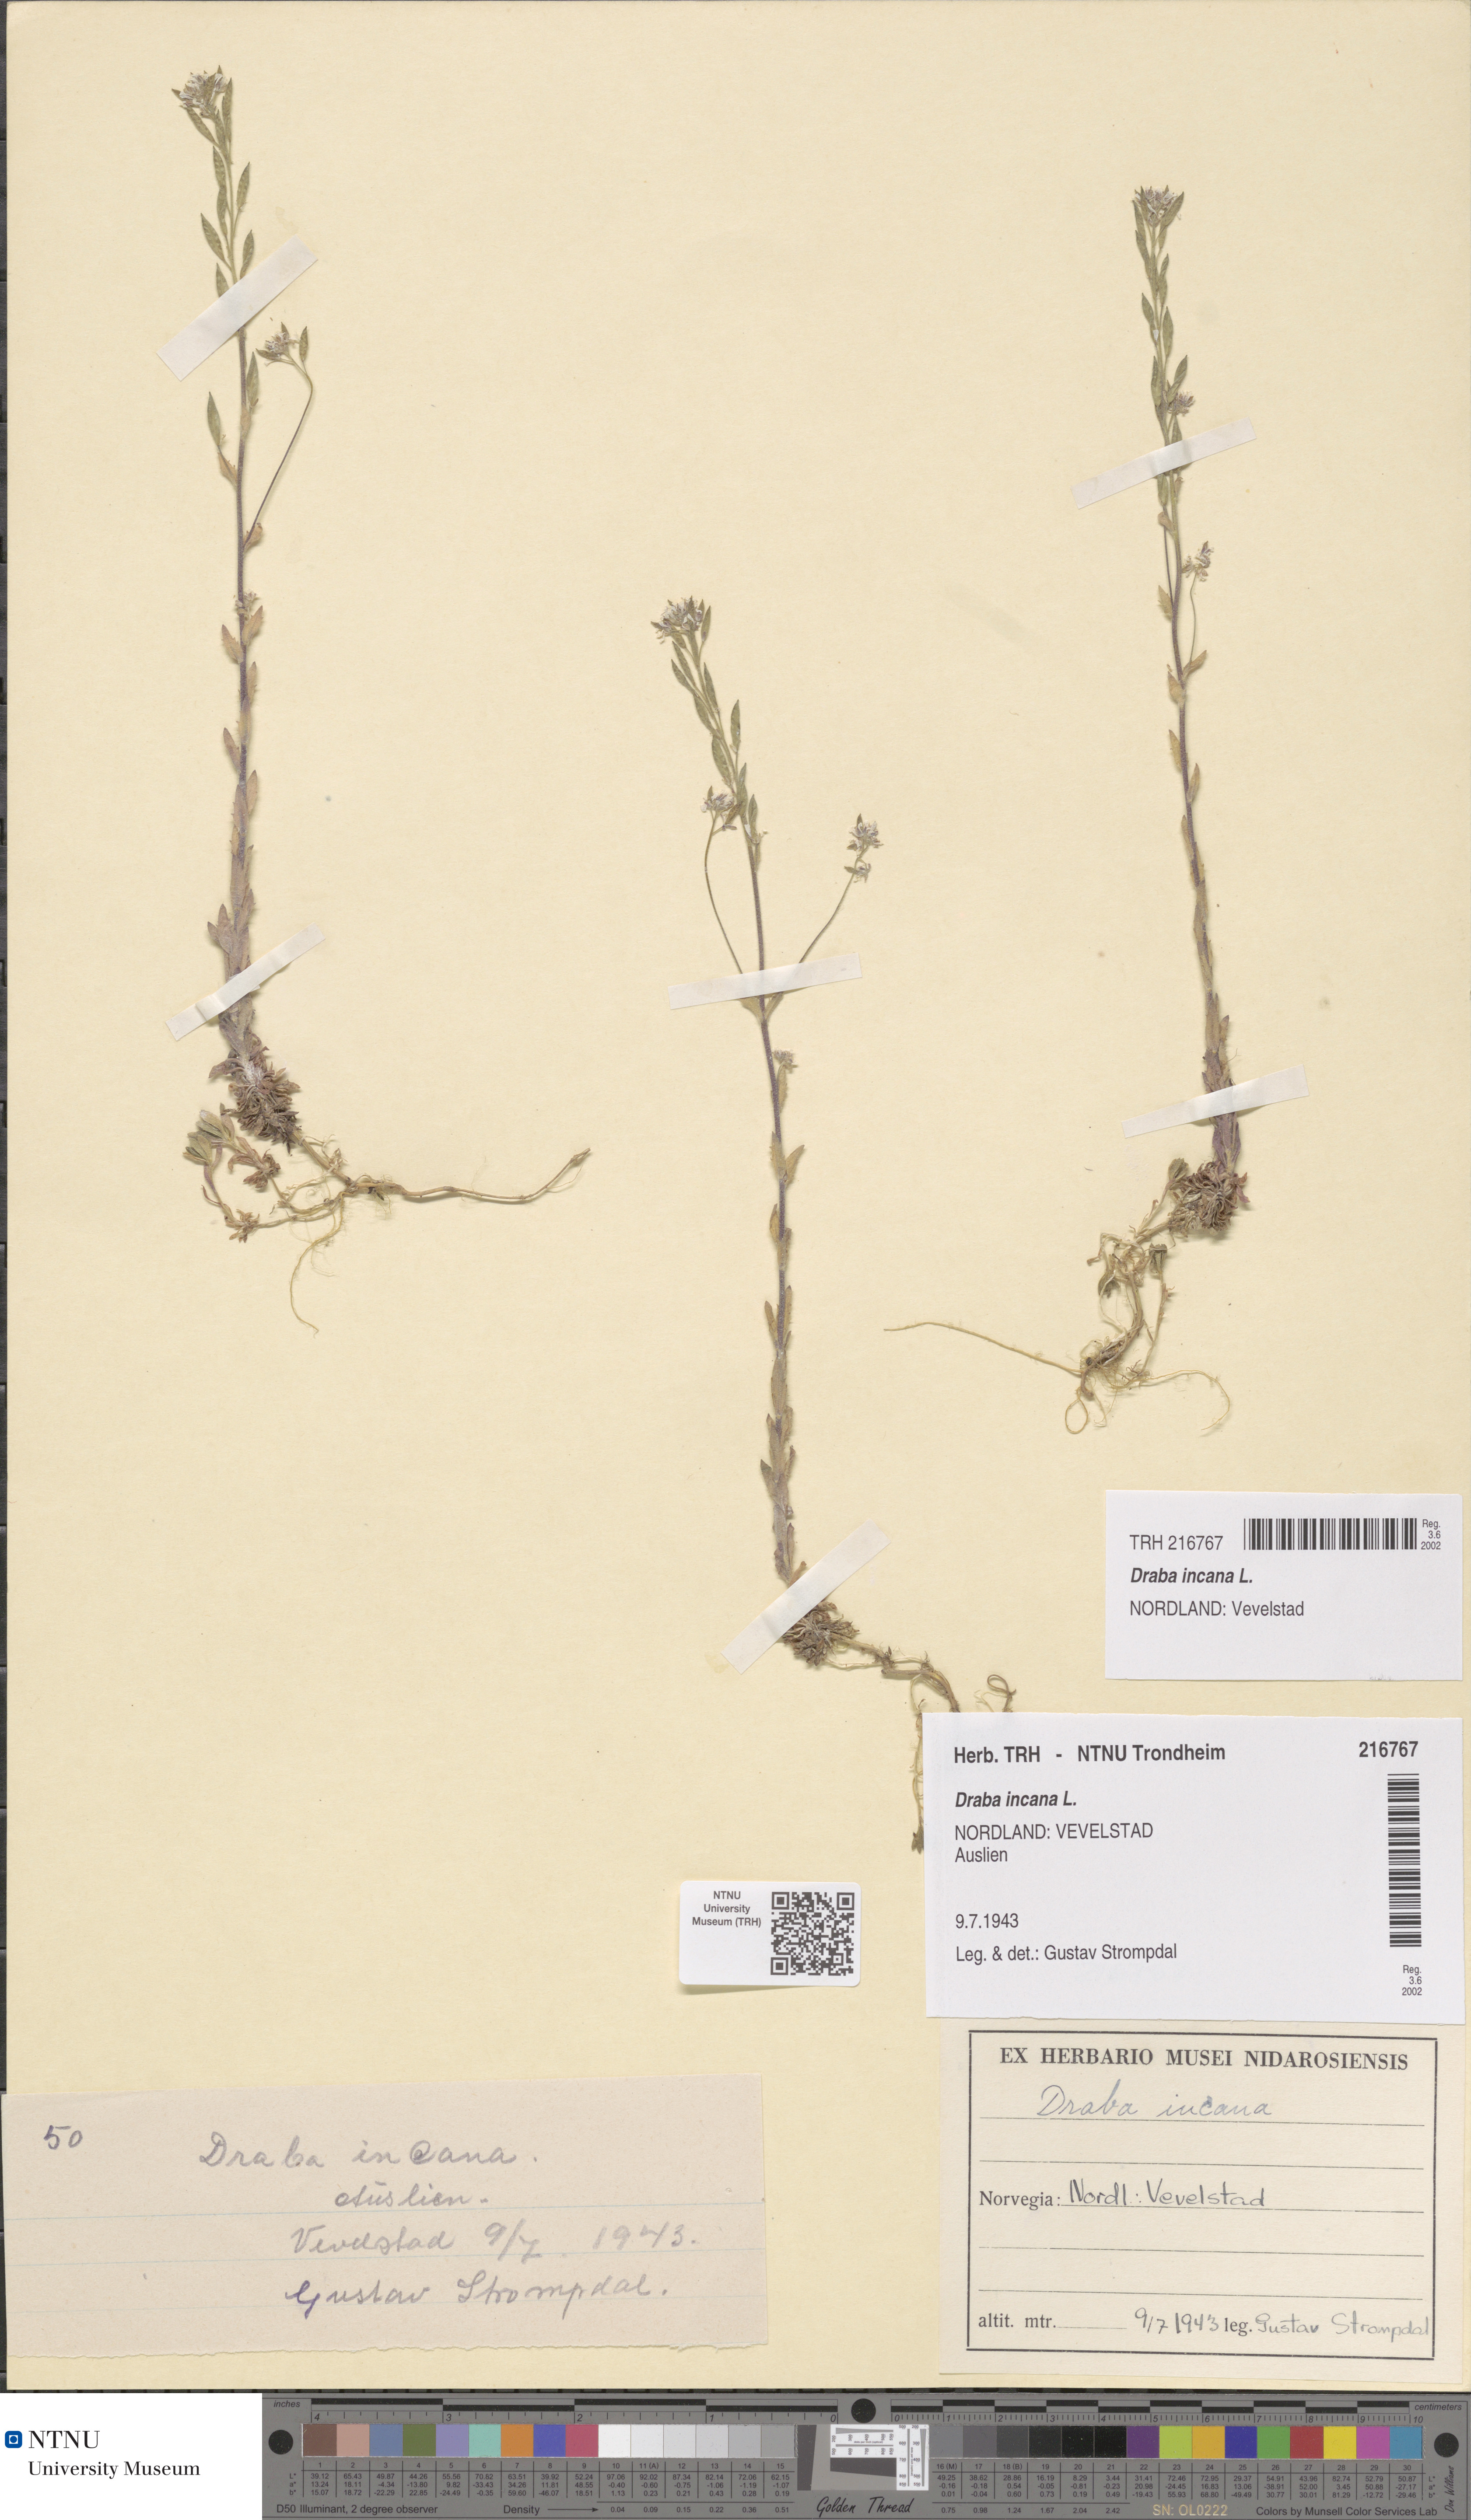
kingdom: Plantae
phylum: Tracheophyta
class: Magnoliopsida
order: Brassicales
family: Brassicaceae
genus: Draba
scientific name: Draba incana
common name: Hoary whitlow-grass
